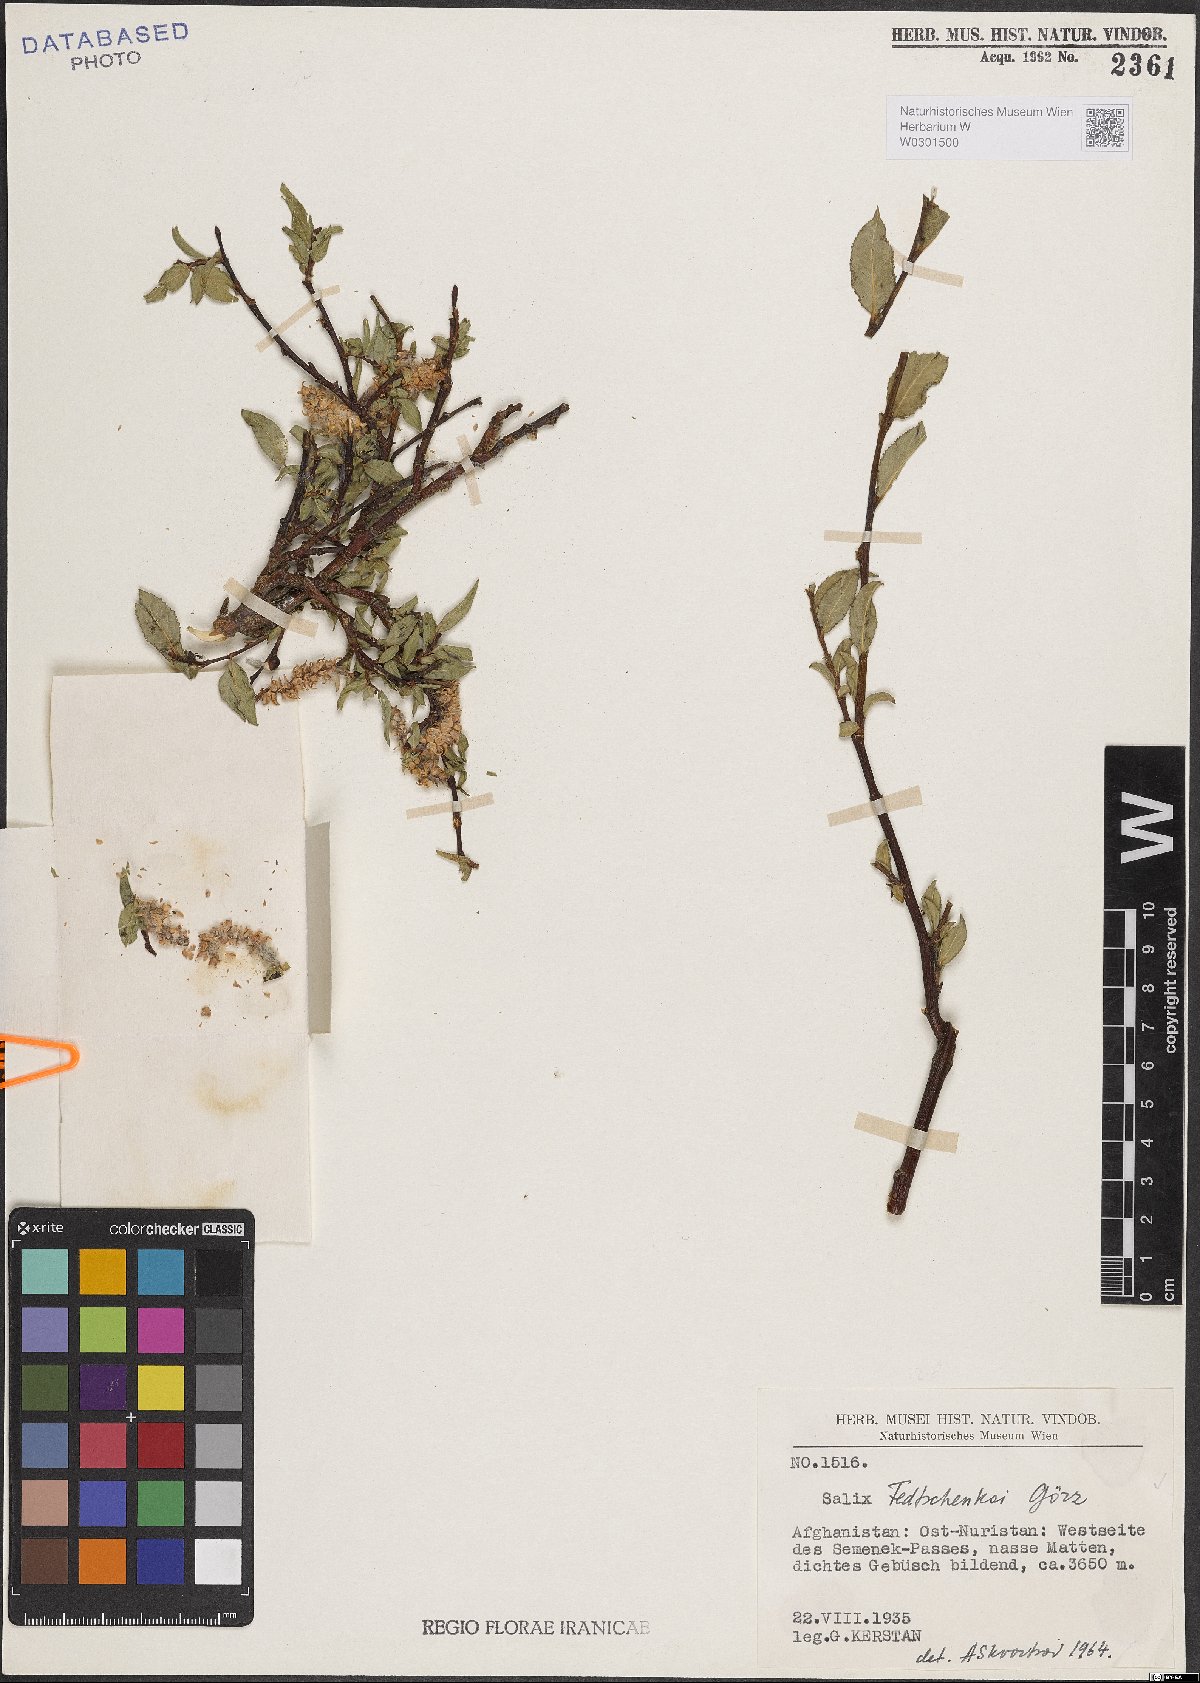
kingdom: Plantae
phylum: Tracheophyta
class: Magnoliopsida
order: Malpighiales
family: Salicaceae
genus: Salix
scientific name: Salix fedtschenkoi
